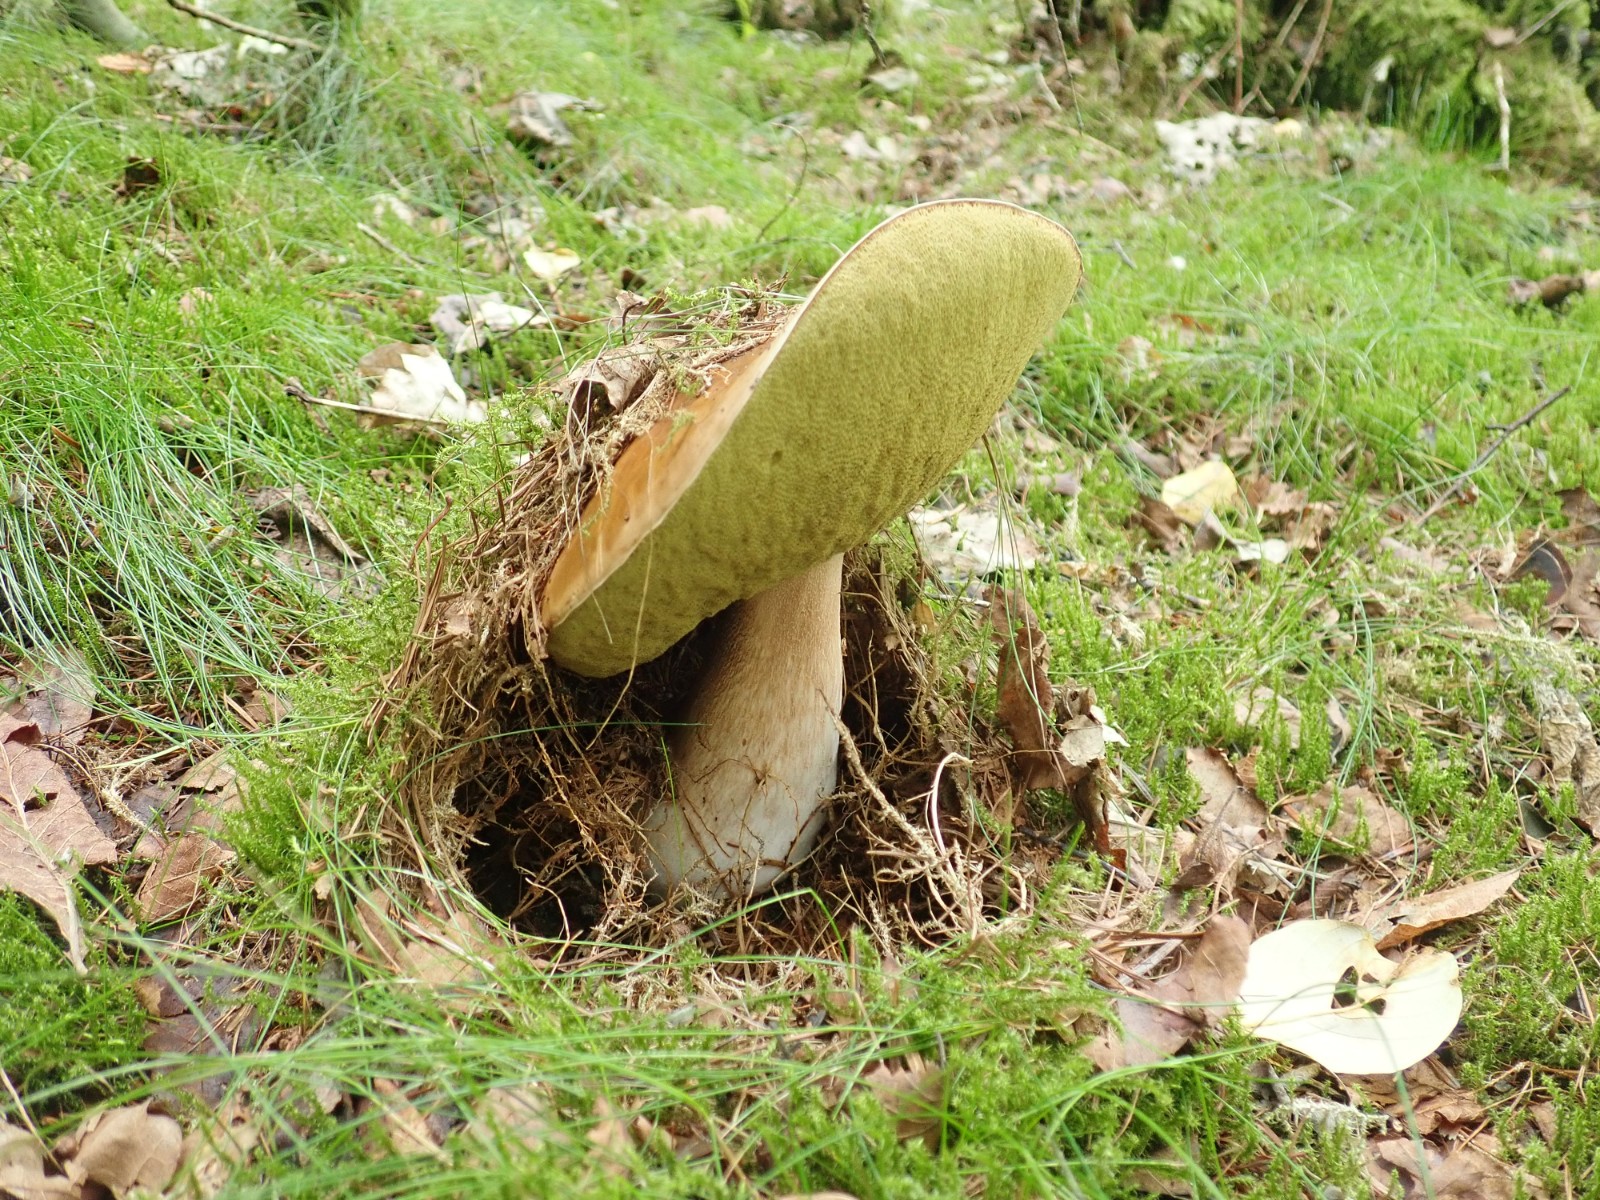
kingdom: Fungi
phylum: Basidiomycota
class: Agaricomycetes
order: Boletales
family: Boletaceae
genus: Boletus
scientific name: Boletus edulis
